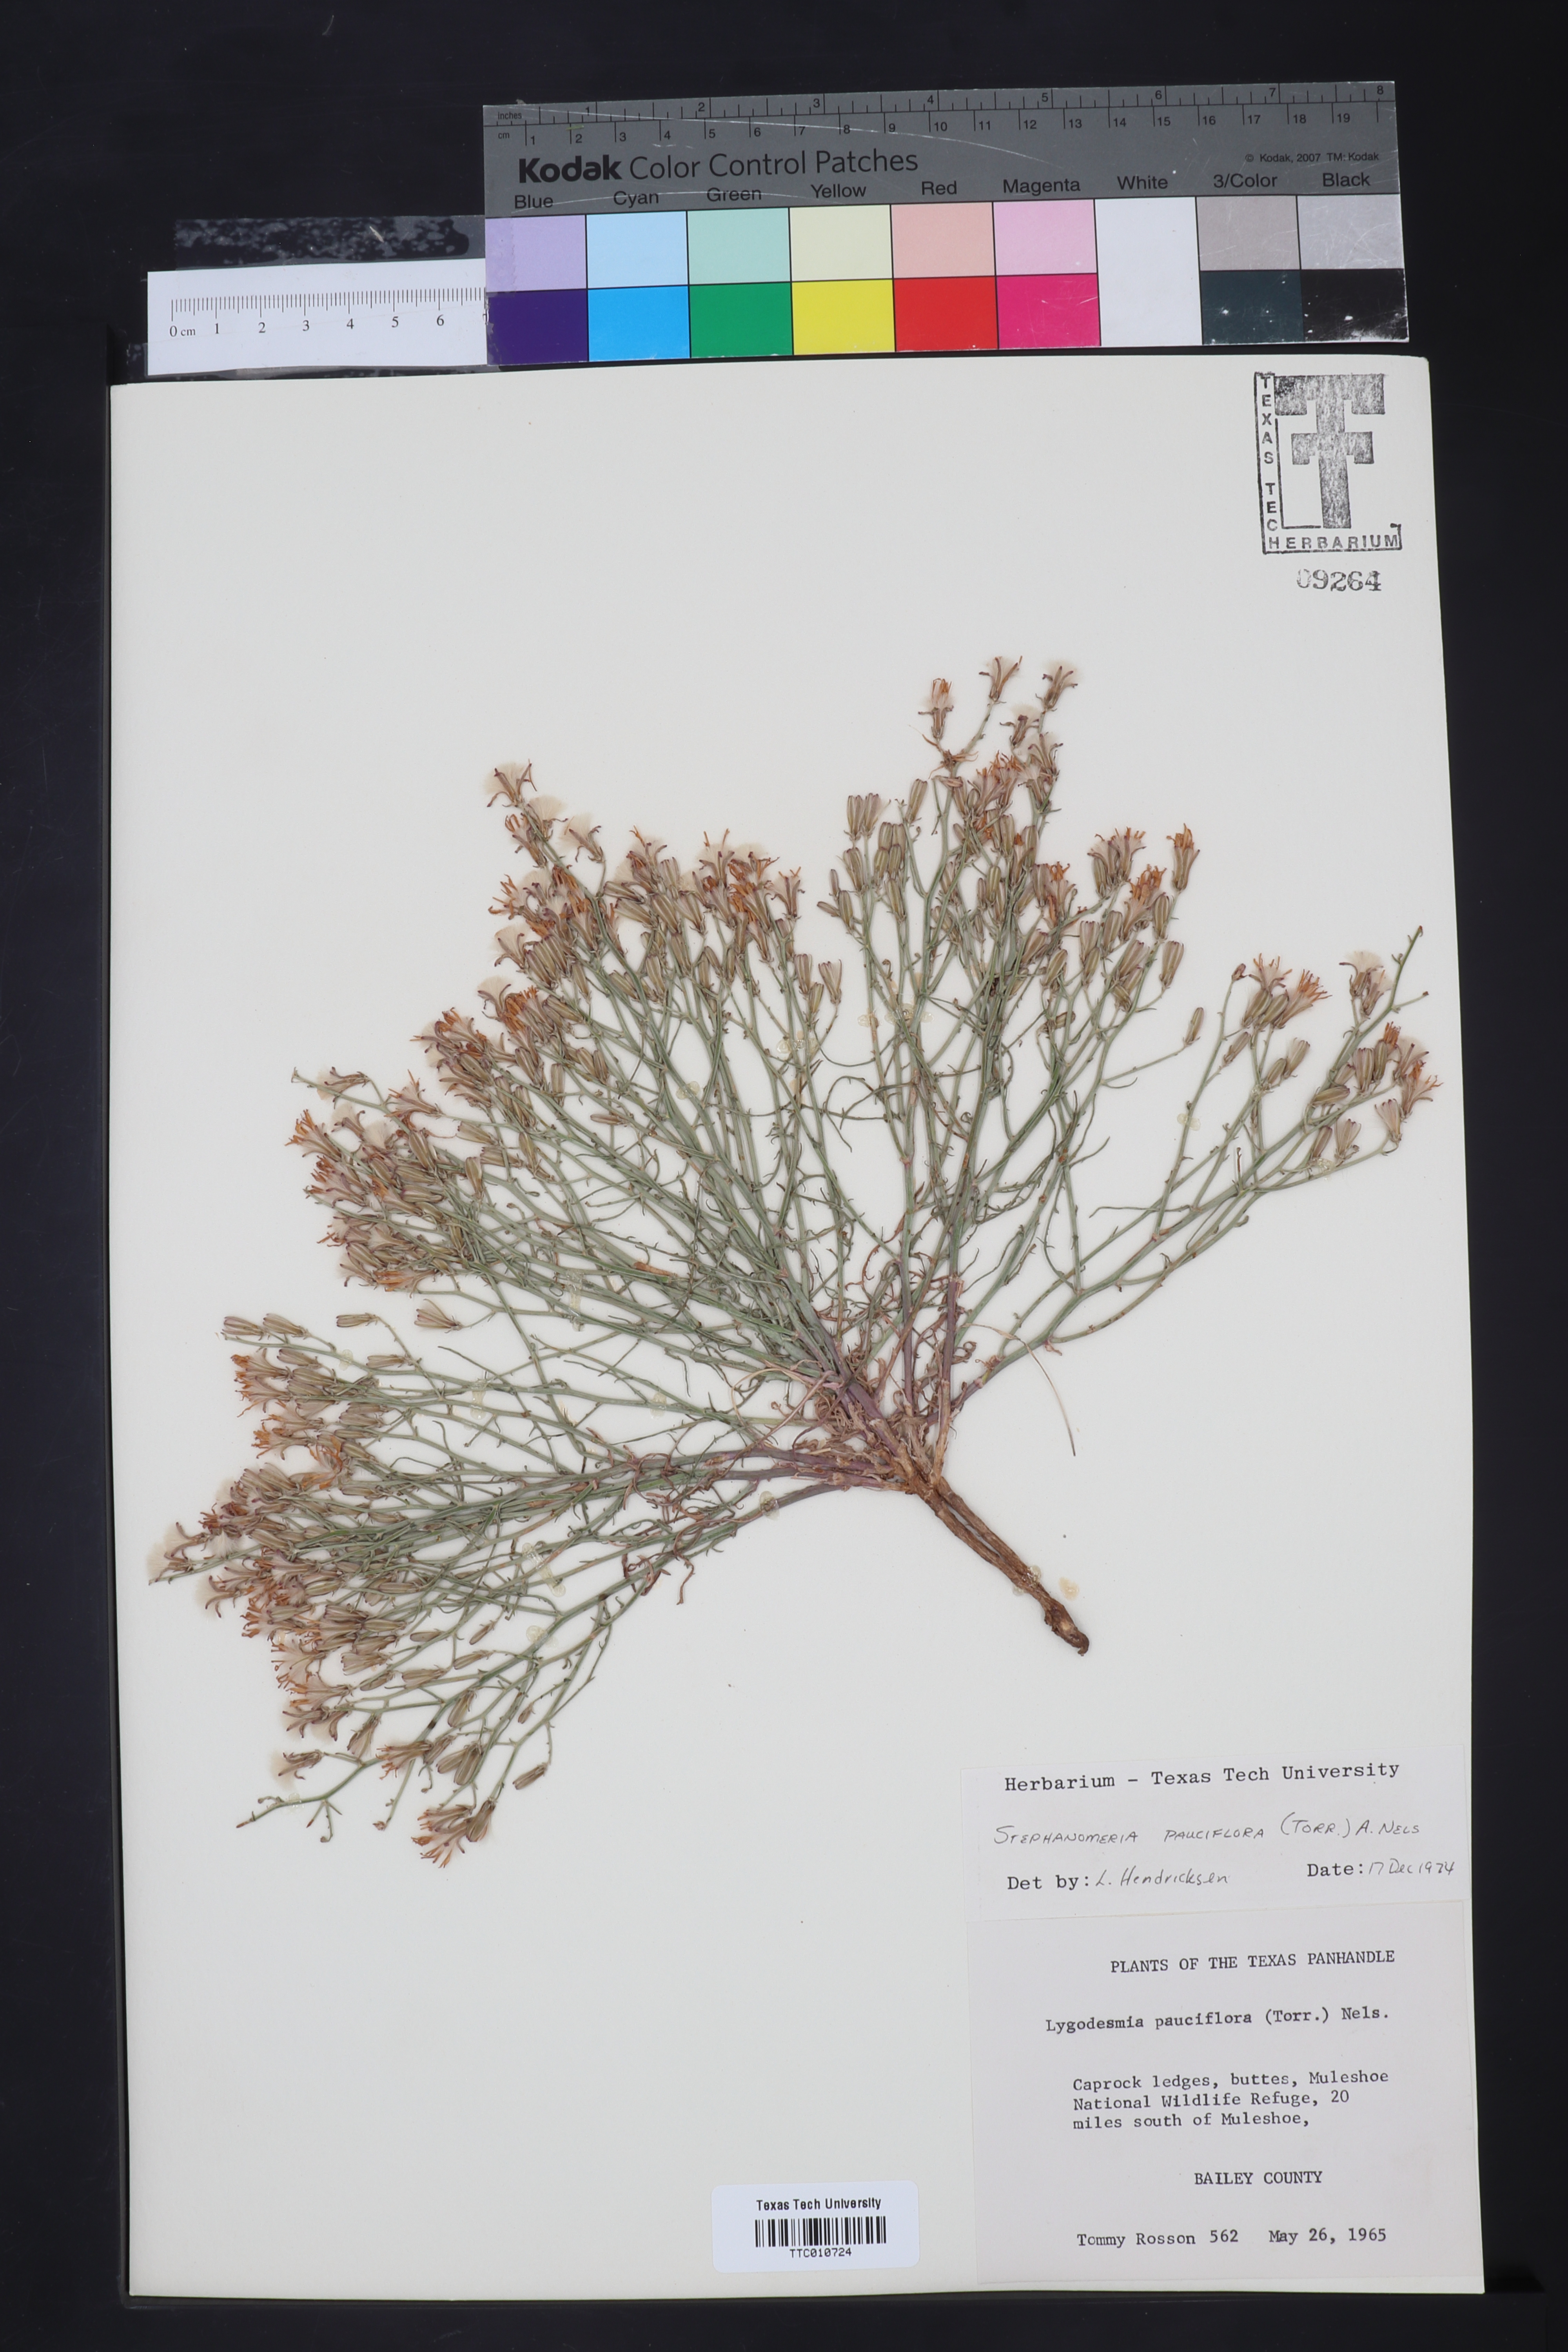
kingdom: Plantae
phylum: Tracheophyta
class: Magnoliopsida
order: Asterales
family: Asteraceae
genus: Stephanomeria
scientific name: Stephanomeria pauciflora
